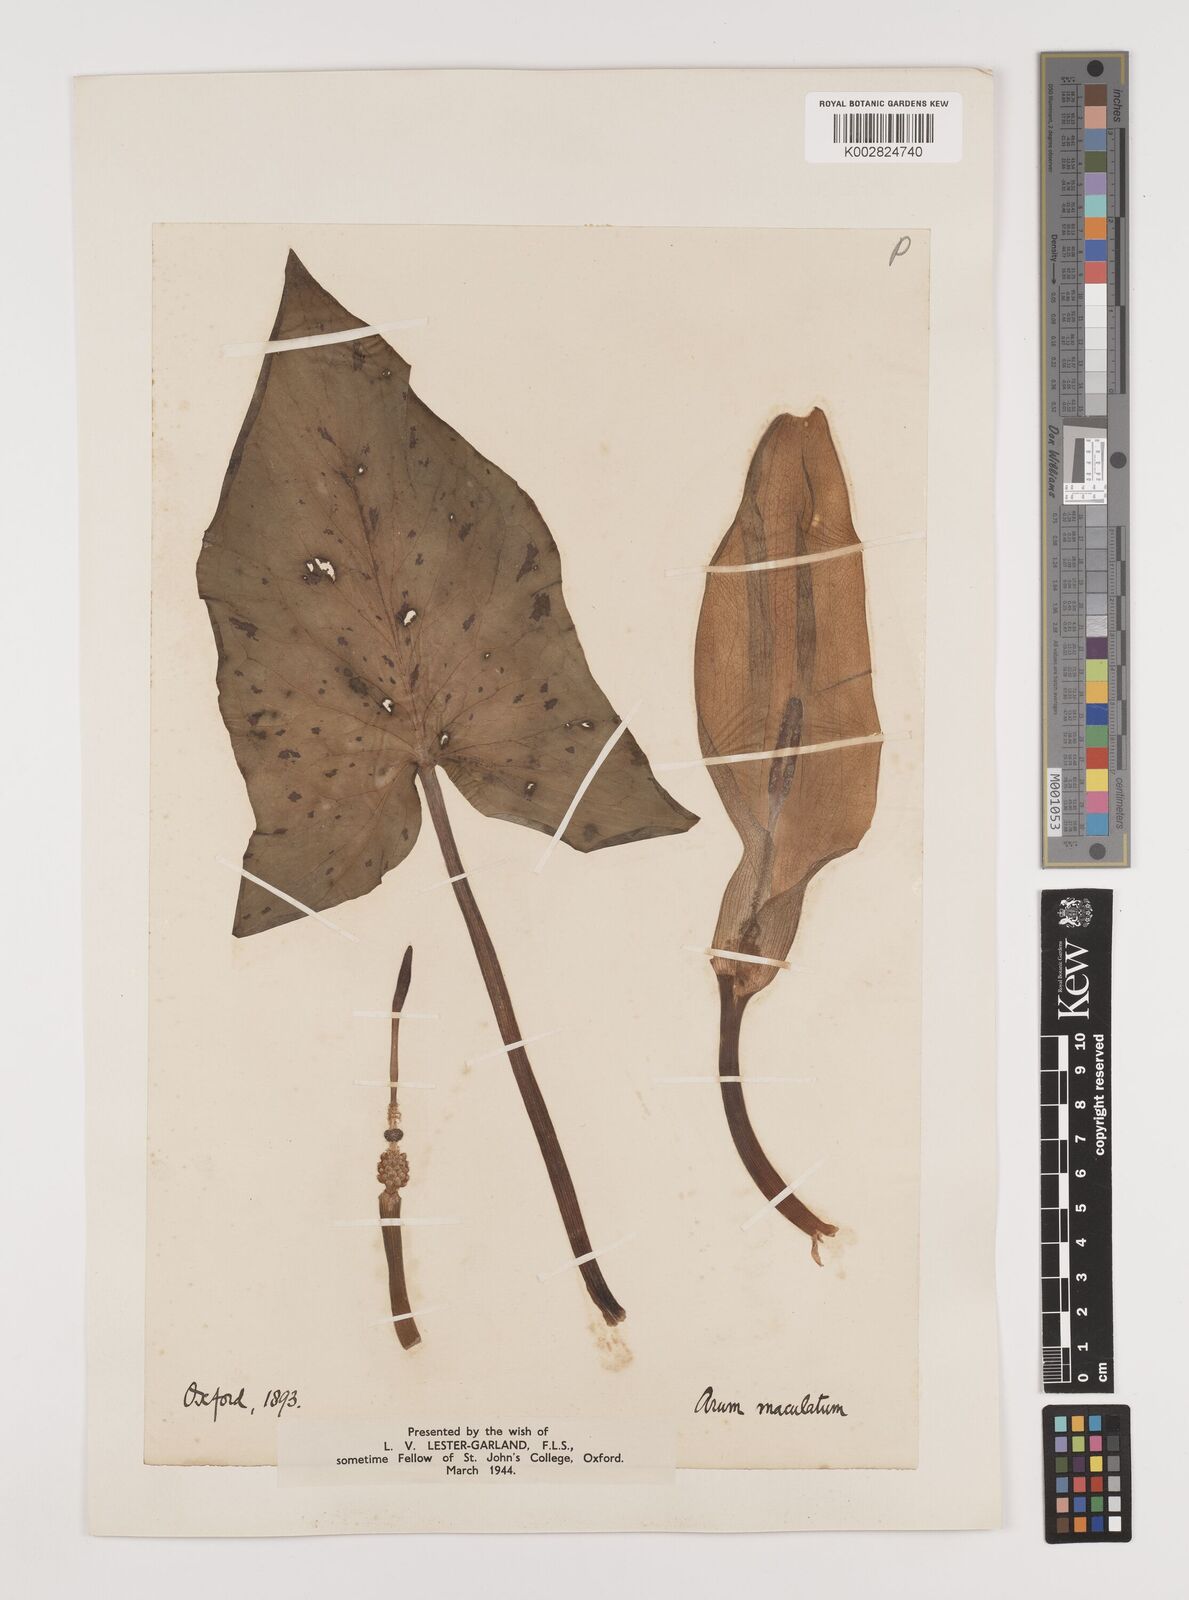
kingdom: Plantae
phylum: Tracheophyta
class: Liliopsida
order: Alismatales
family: Araceae
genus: Arum
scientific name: Arum maculatum
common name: Lords-and-ladies
